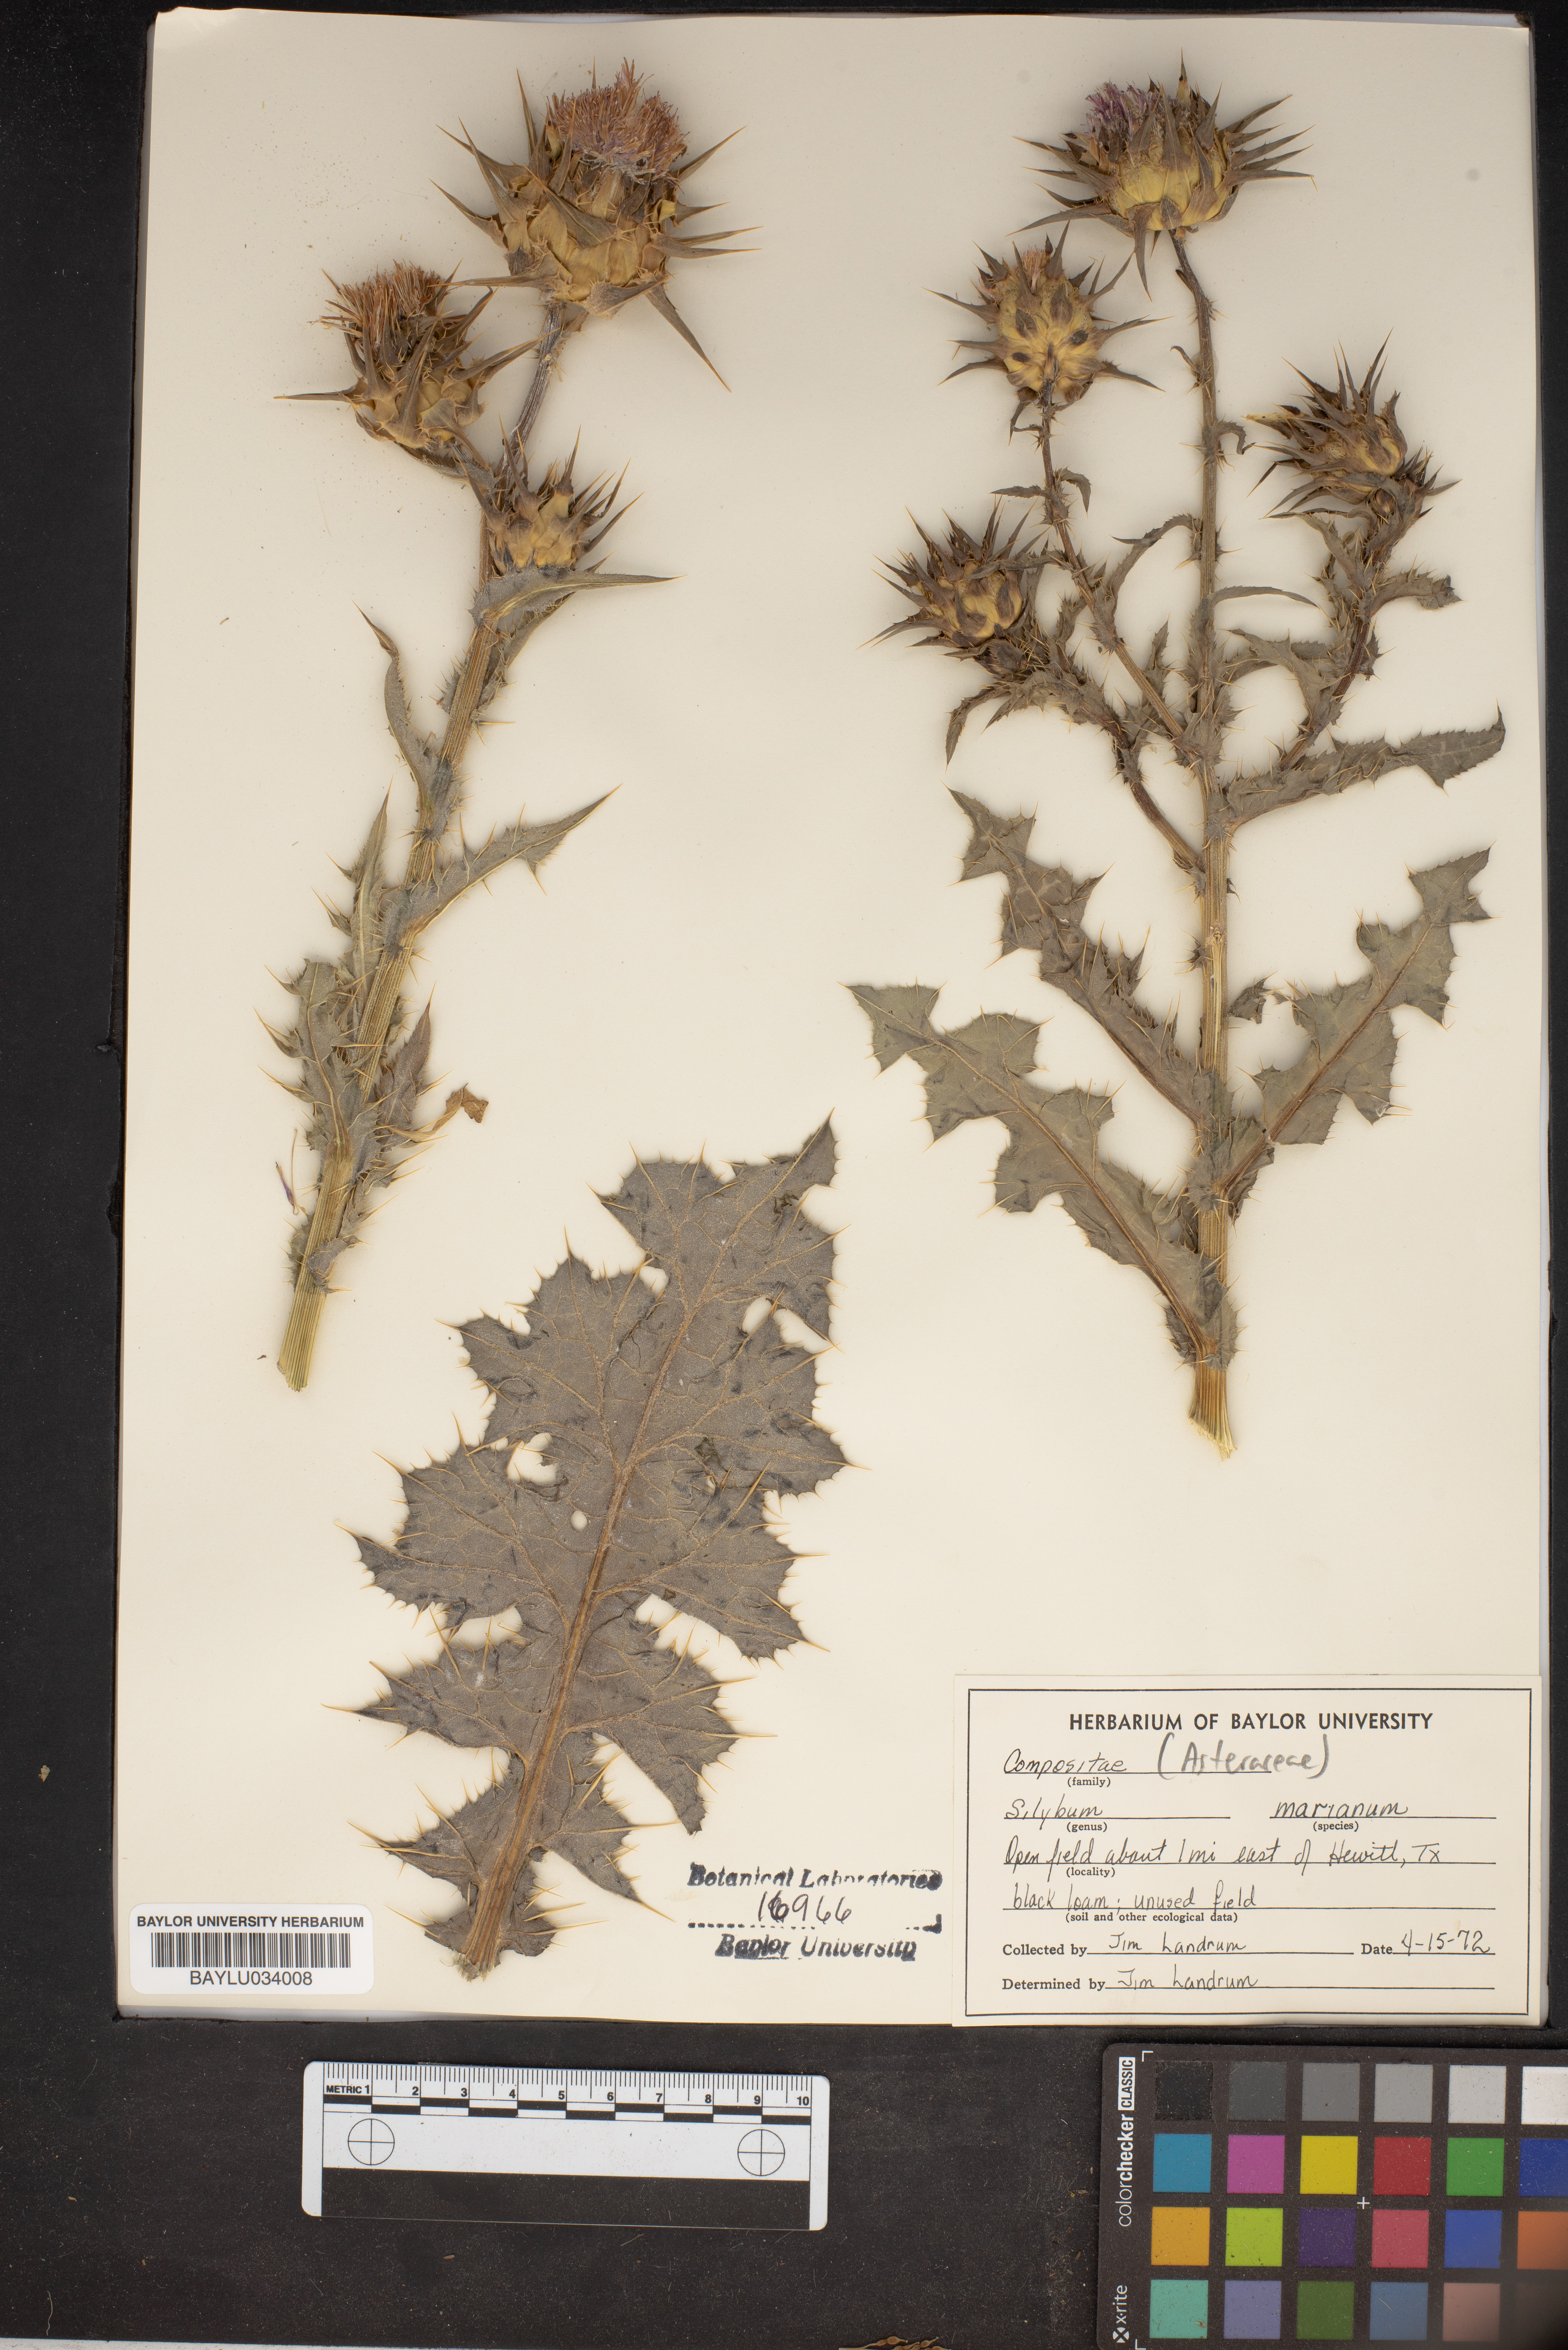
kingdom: Plantae
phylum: Tracheophyta
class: Magnoliopsida
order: Asterales
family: Asteraceae
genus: Silybum
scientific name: Silybum marianum
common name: Milk thistle
